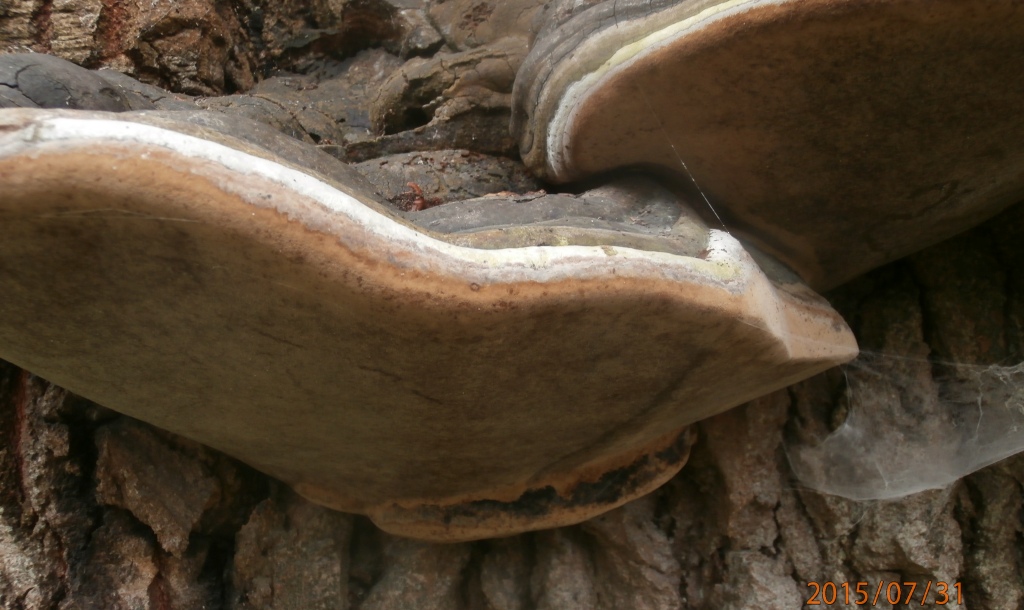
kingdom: Fungi
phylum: Basidiomycota
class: Agaricomycetes
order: Hymenochaetales
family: Hymenochaetaceae
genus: Phellinus
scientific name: Phellinus populicola
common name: poppel-ildporesvamp
